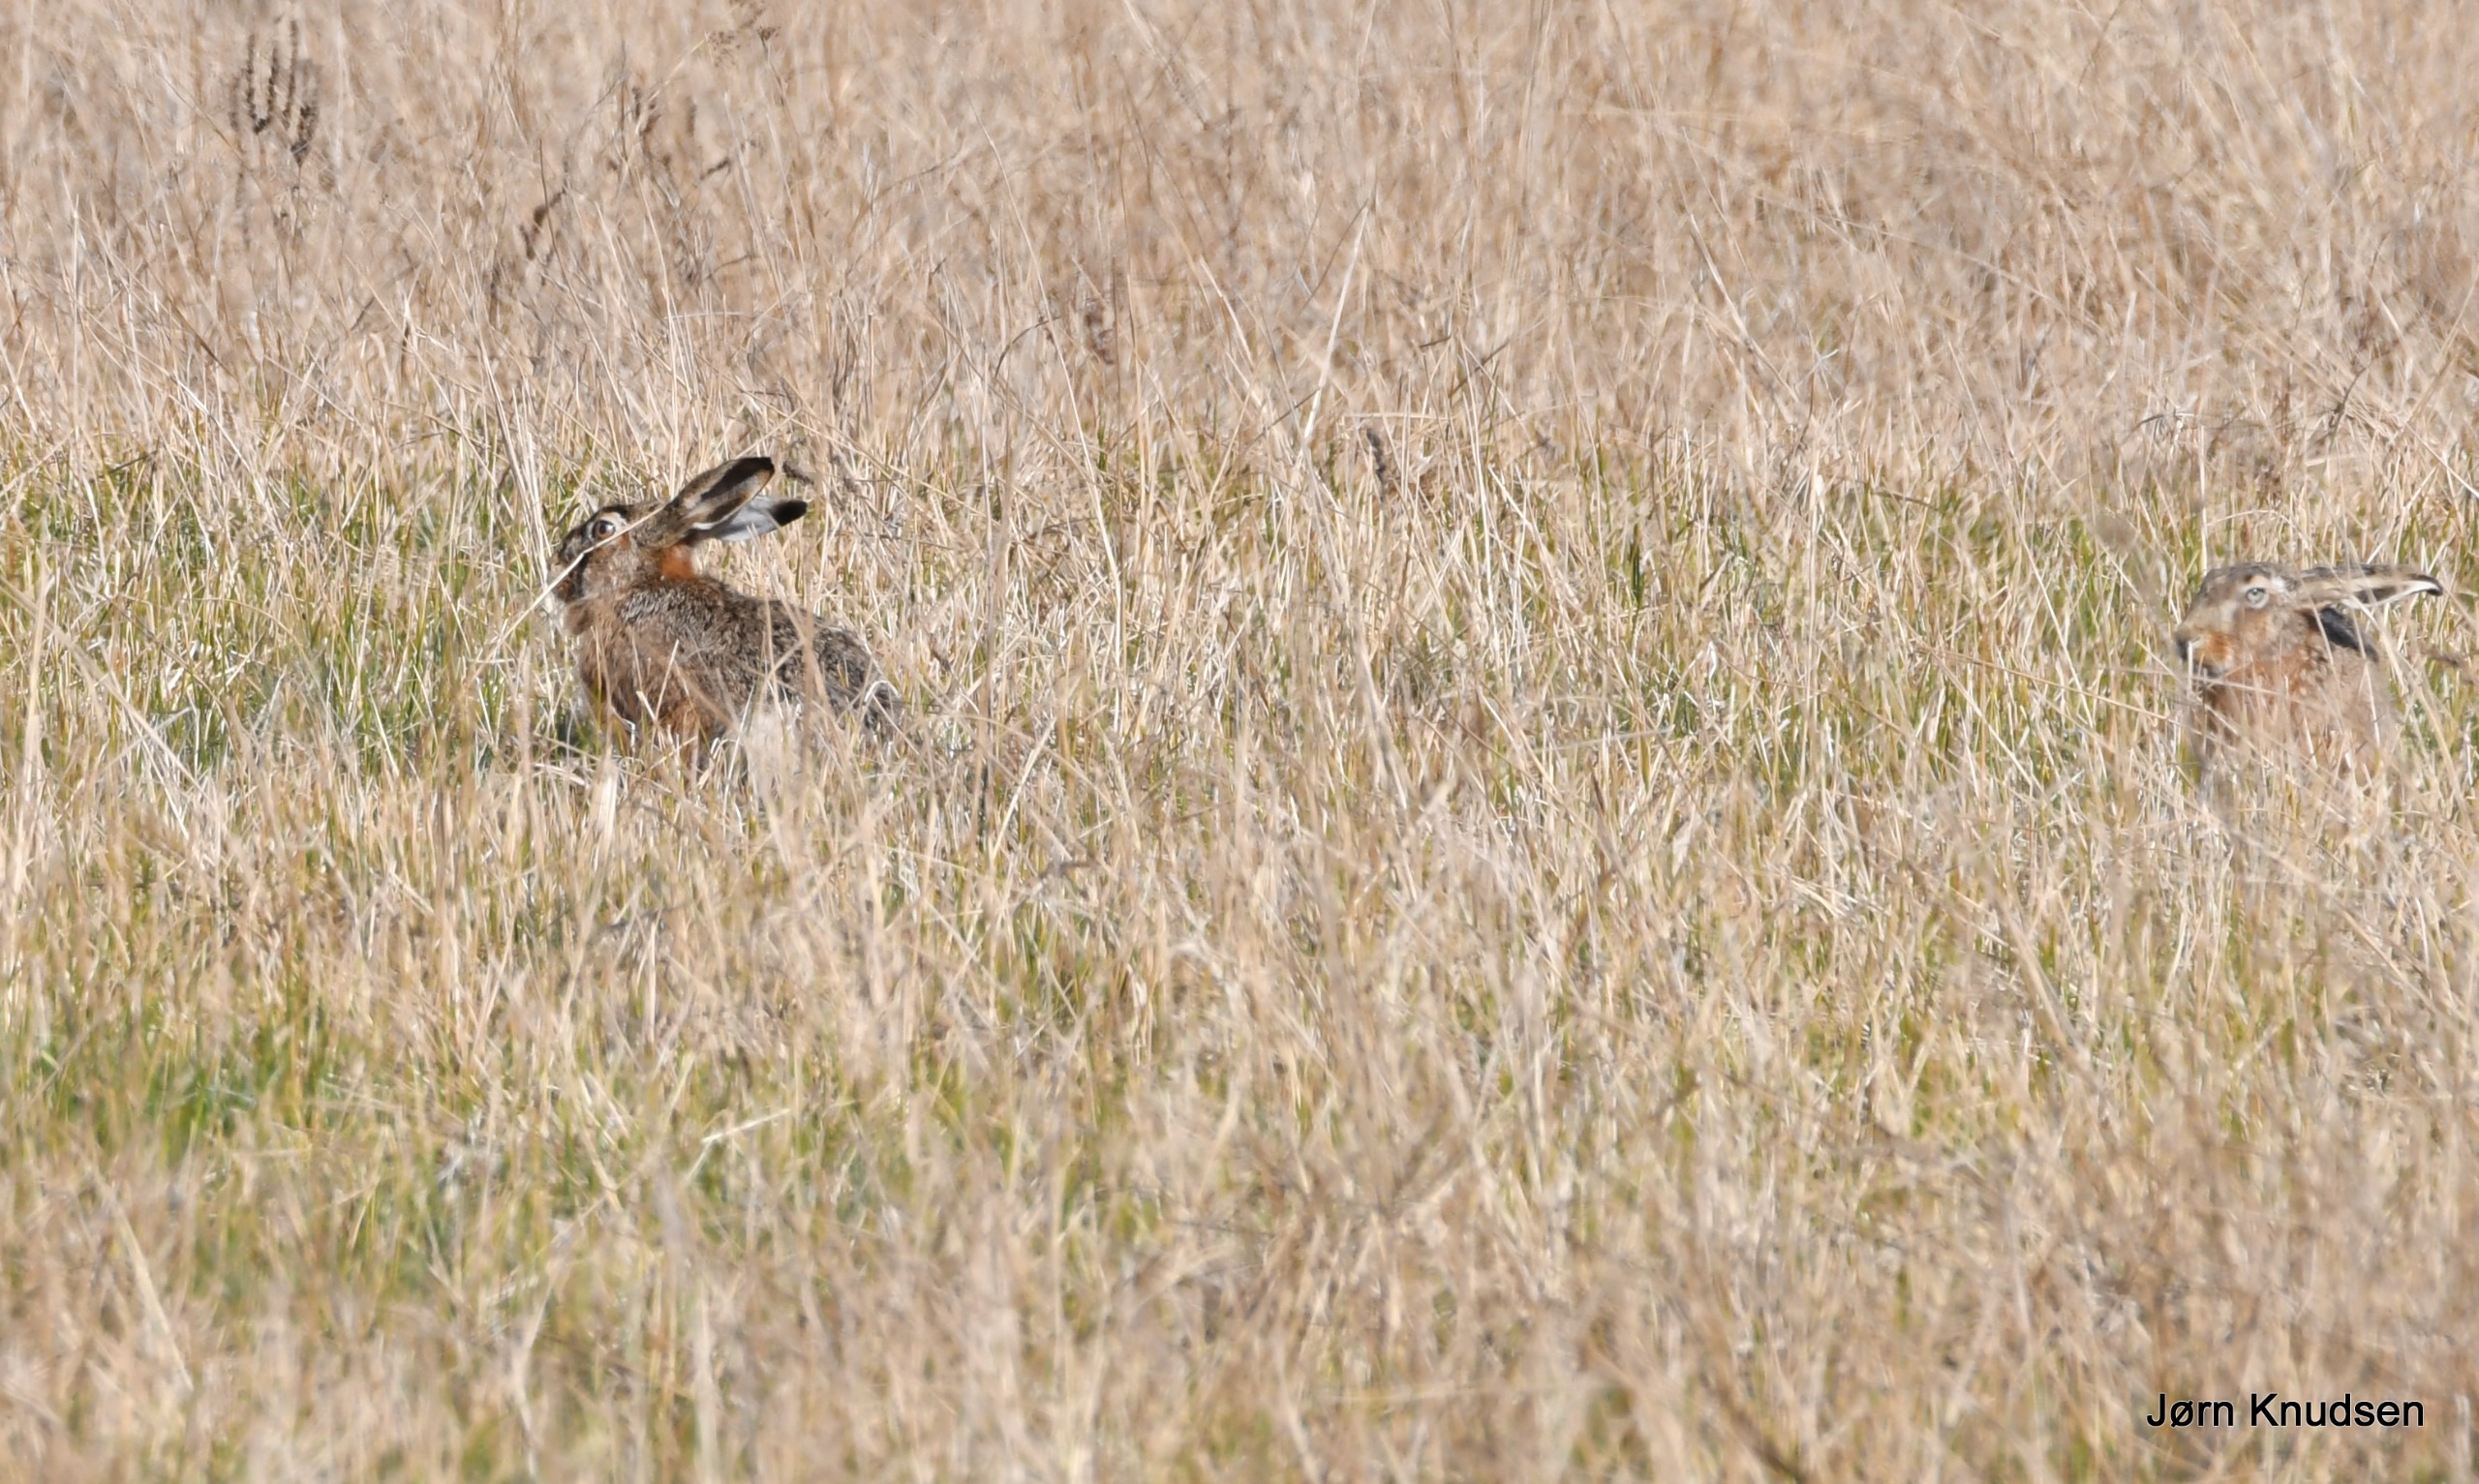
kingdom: Animalia
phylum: Chordata
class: Mammalia
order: Lagomorpha
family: Leporidae
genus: Lepus
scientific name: Lepus europaeus
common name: Hare
